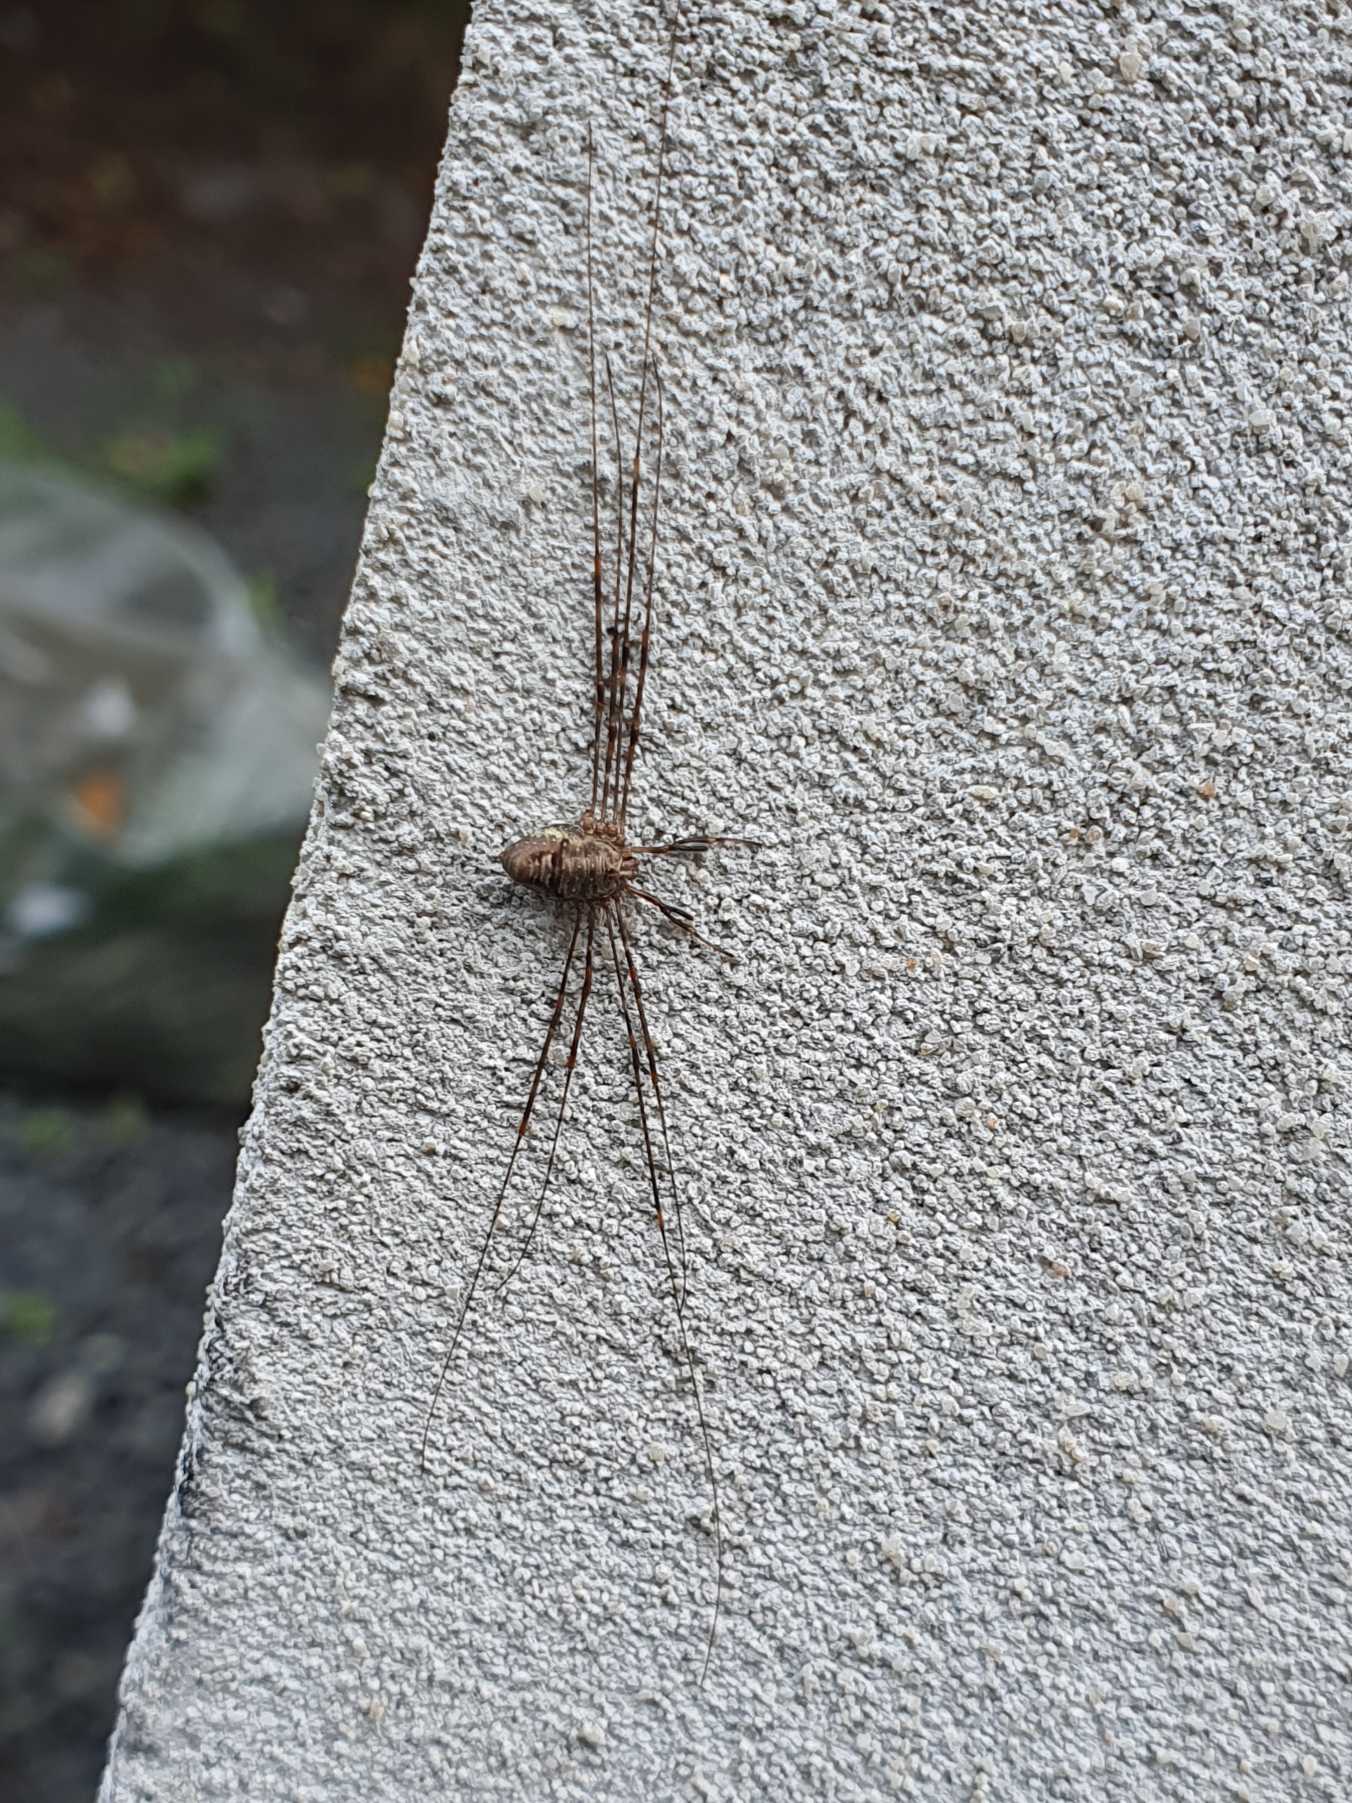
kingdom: Animalia
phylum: Arthropoda
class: Arachnida
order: Opiliones
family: Phalangiidae
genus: Dicranopalpus
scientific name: Dicranopalpus ramosus
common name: Gaffelmejer
